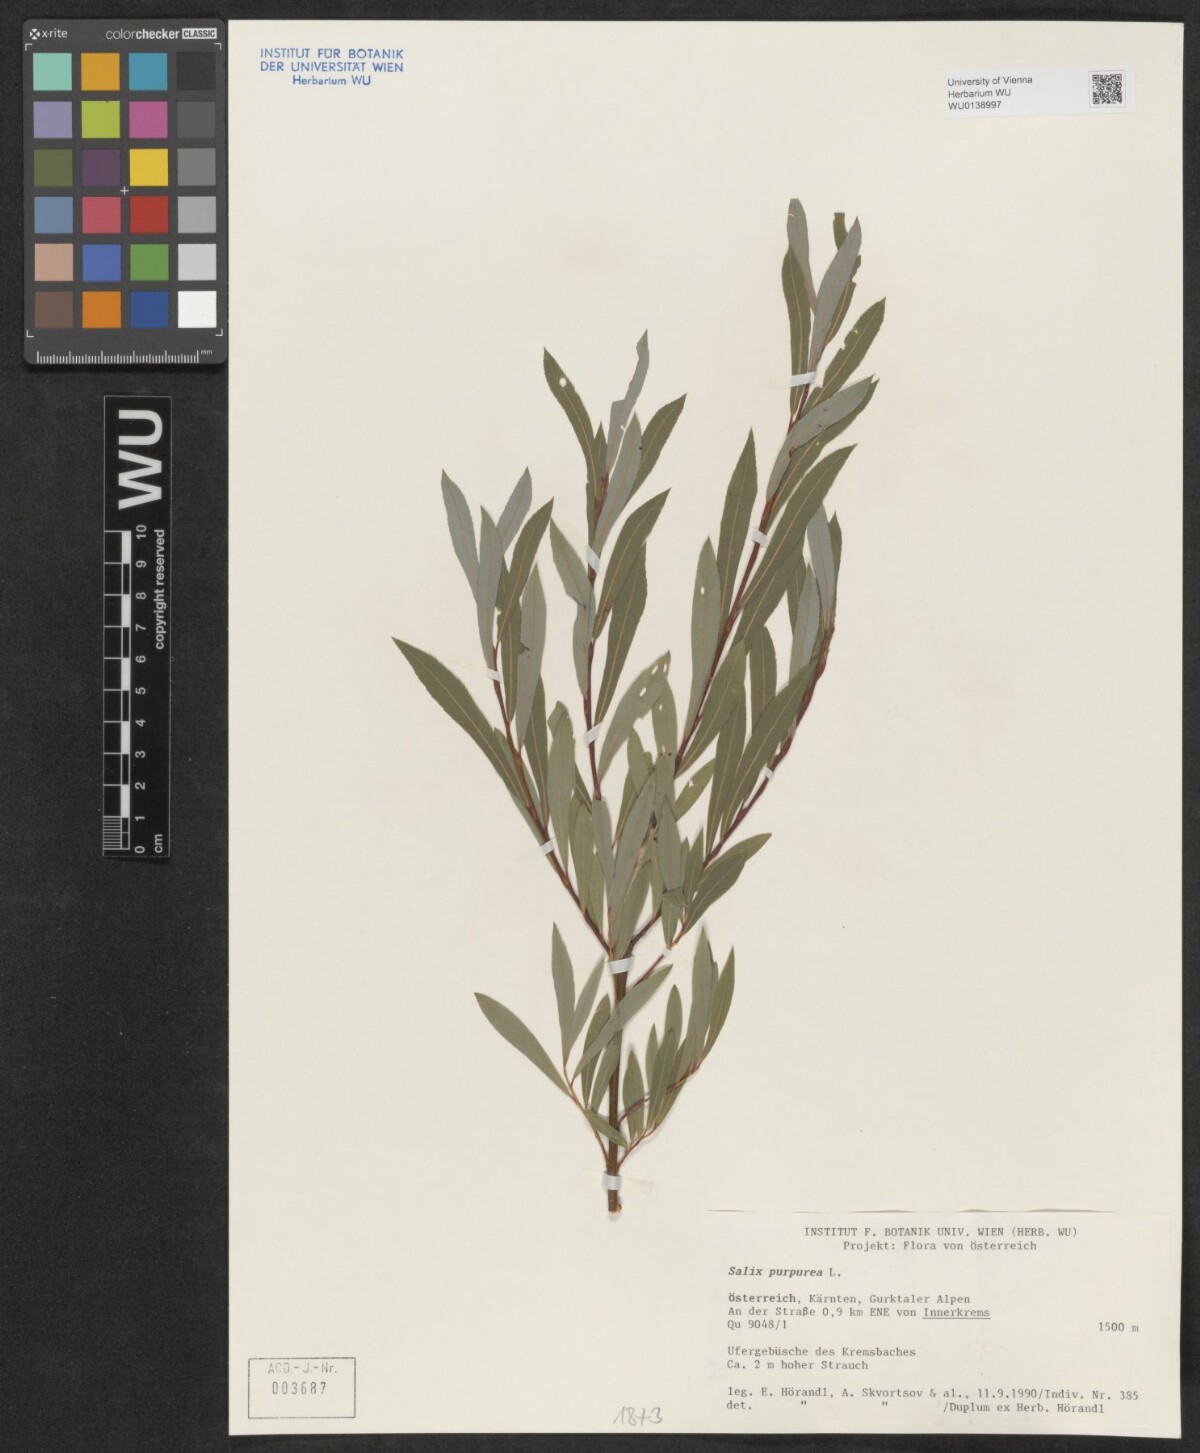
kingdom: Plantae
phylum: Tracheophyta
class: Magnoliopsida
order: Malpighiales
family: Salicaceae
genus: Salix
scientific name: Salix purpurea
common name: Purple willow
